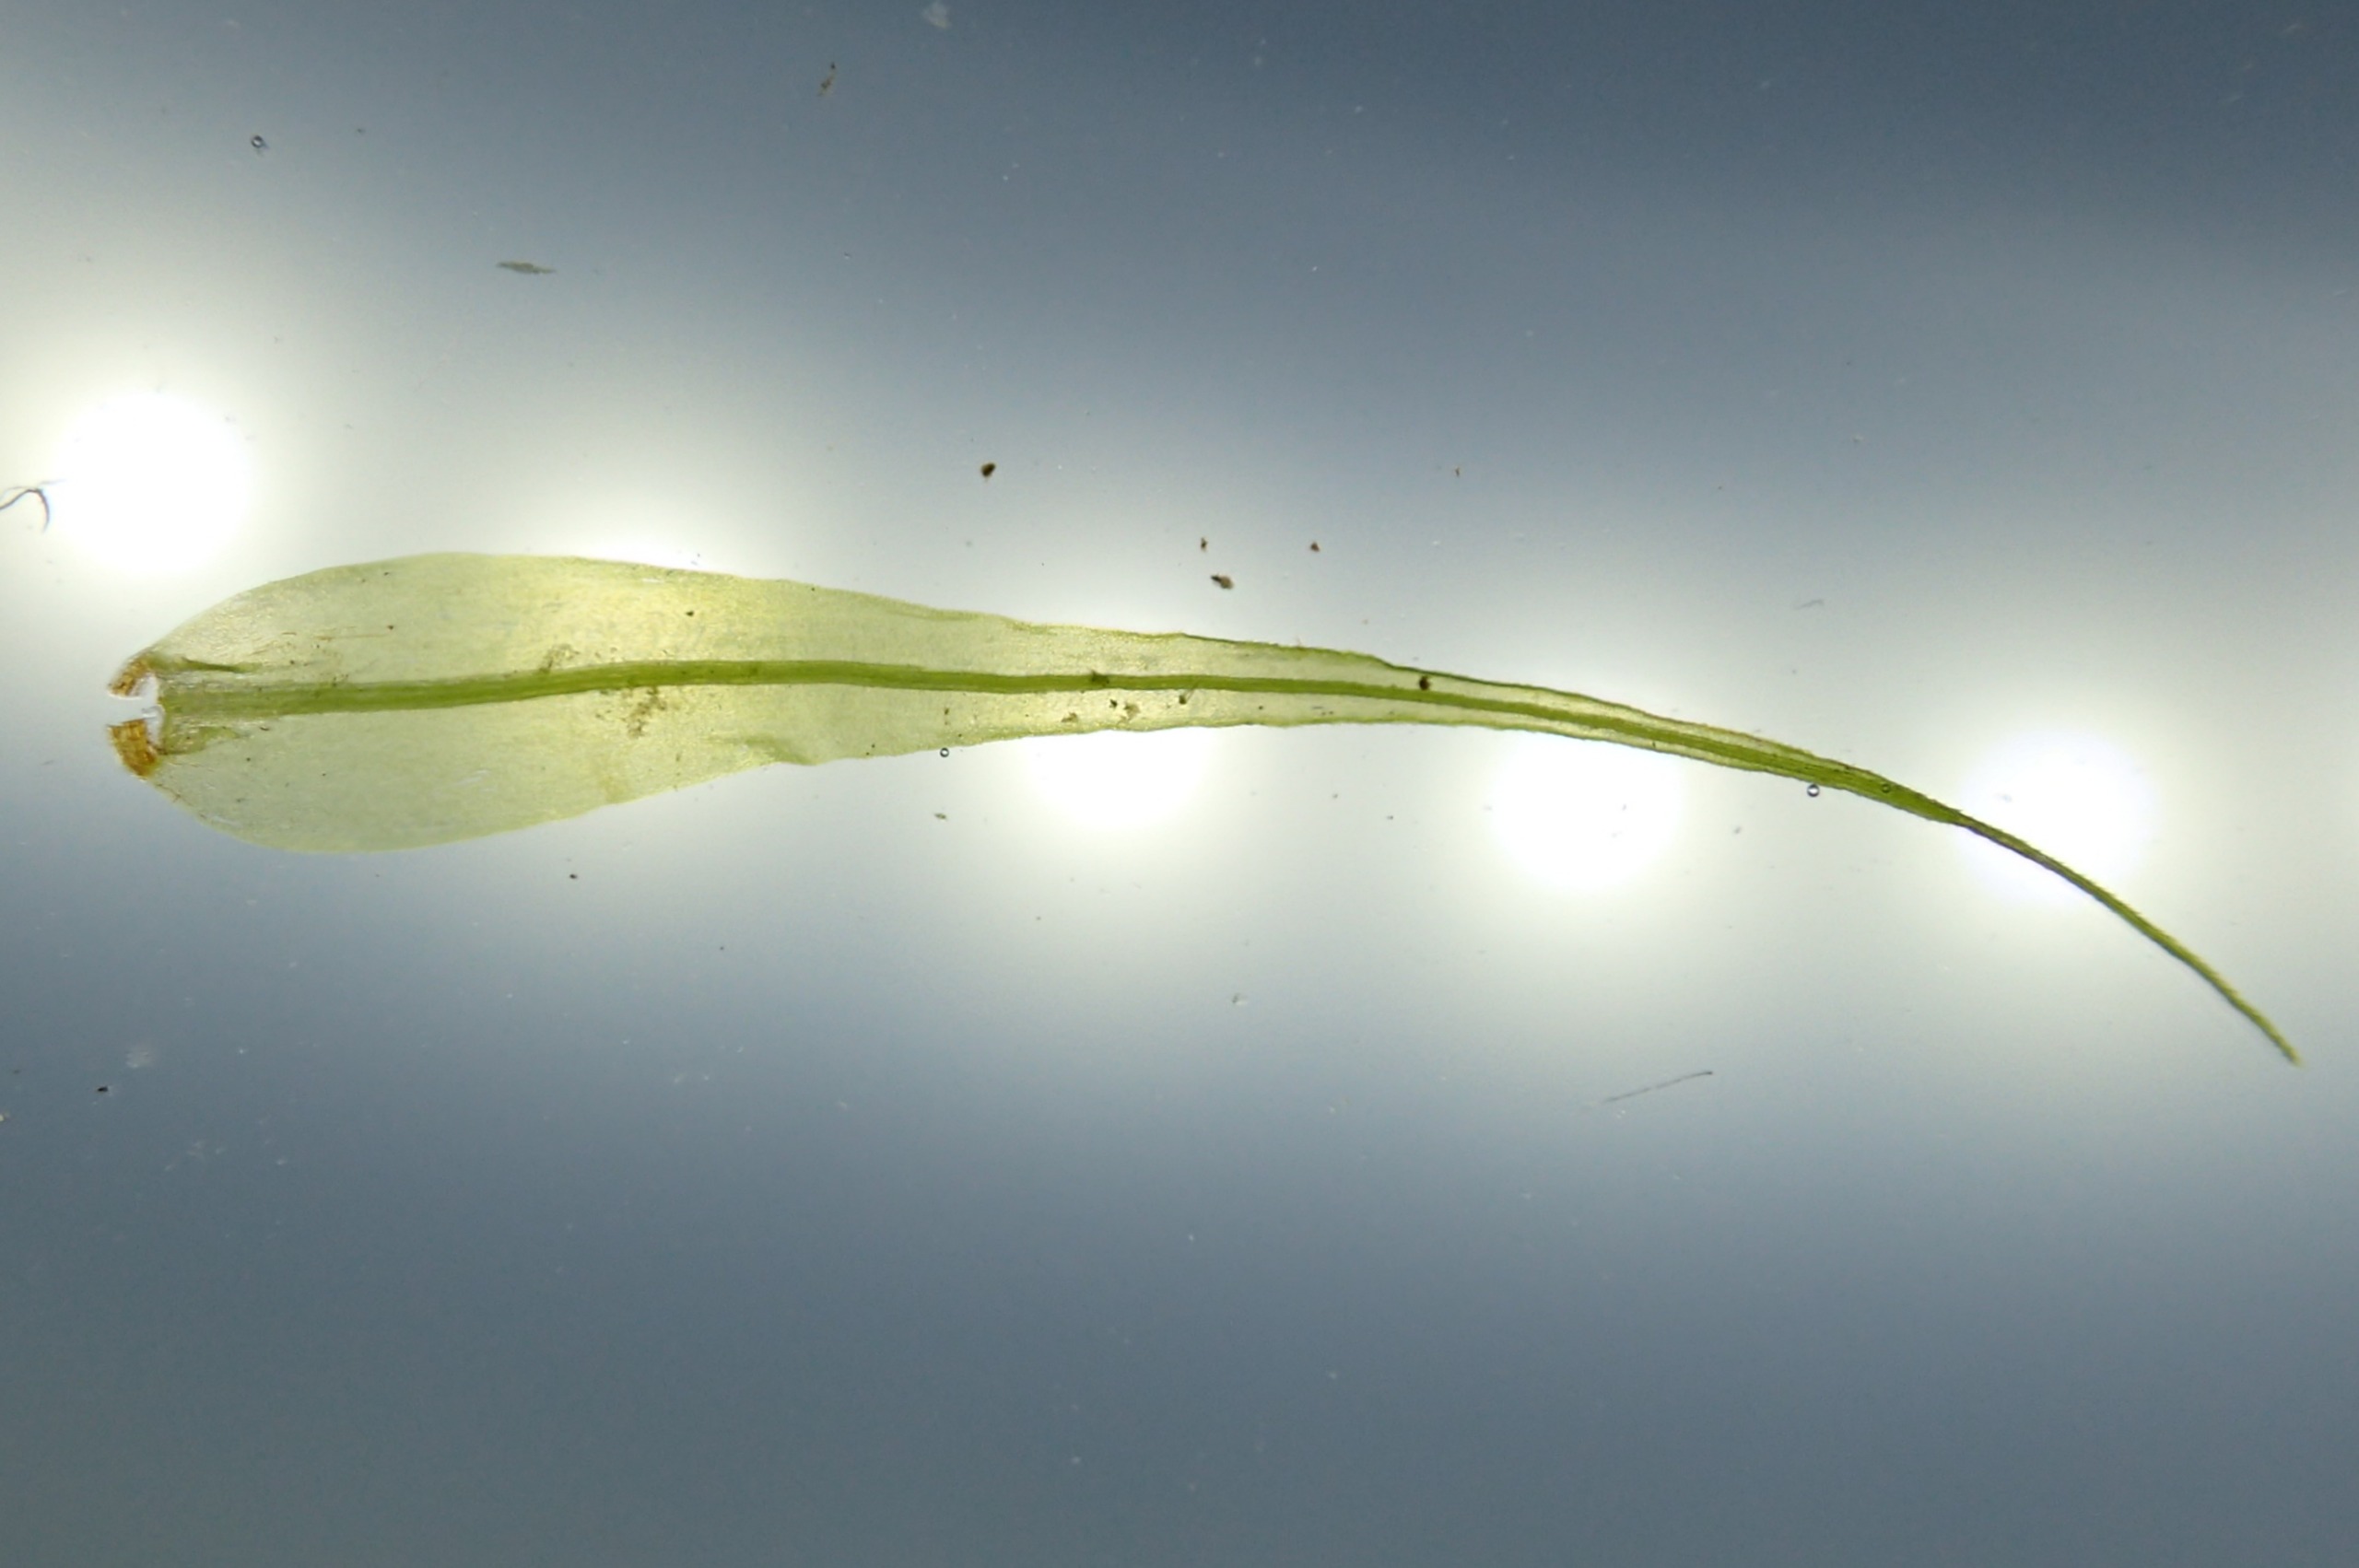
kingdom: Plantae
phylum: Bryophyta
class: Bryopsida
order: Dicranales
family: Dicranaceae
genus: Dicranum
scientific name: Dicranum majus
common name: Stor kløvtand
